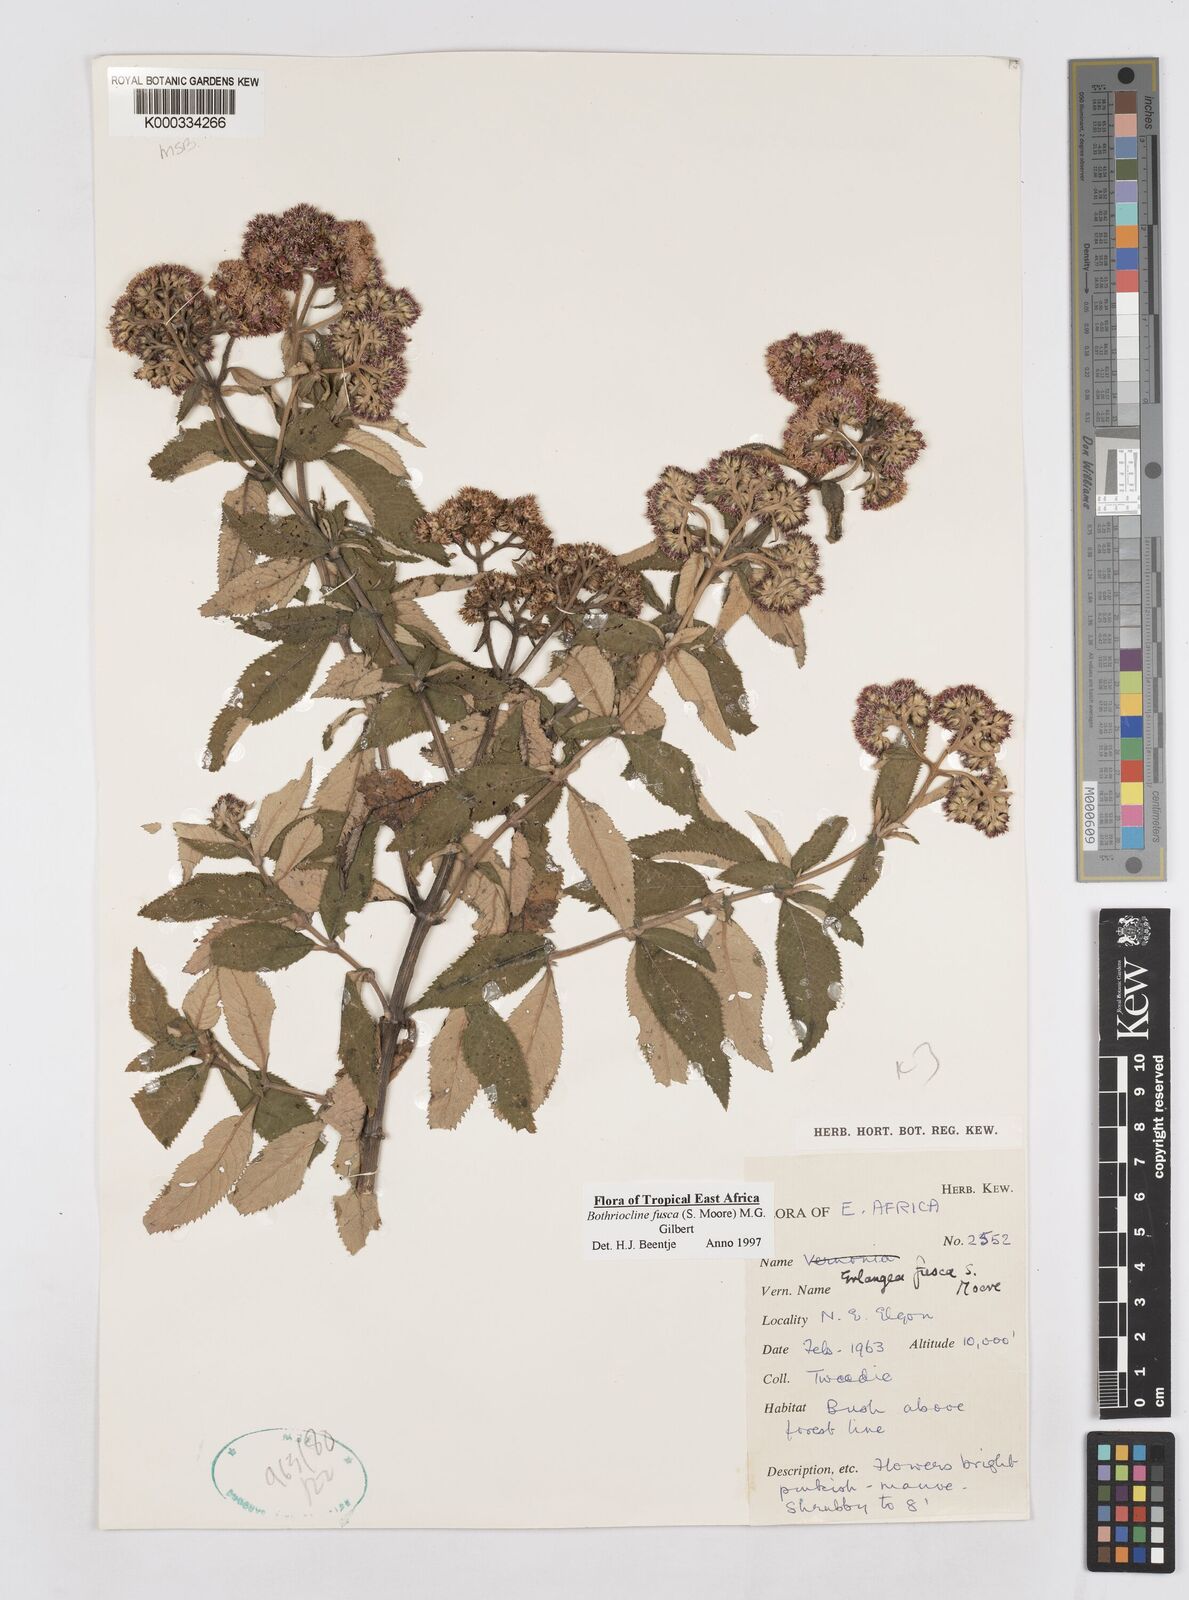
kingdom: Plantae
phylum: Tracheophyta
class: Magnoliopsida
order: Asterales
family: Asteraceae
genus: Bothriocline
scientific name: Bothriocline fusca
